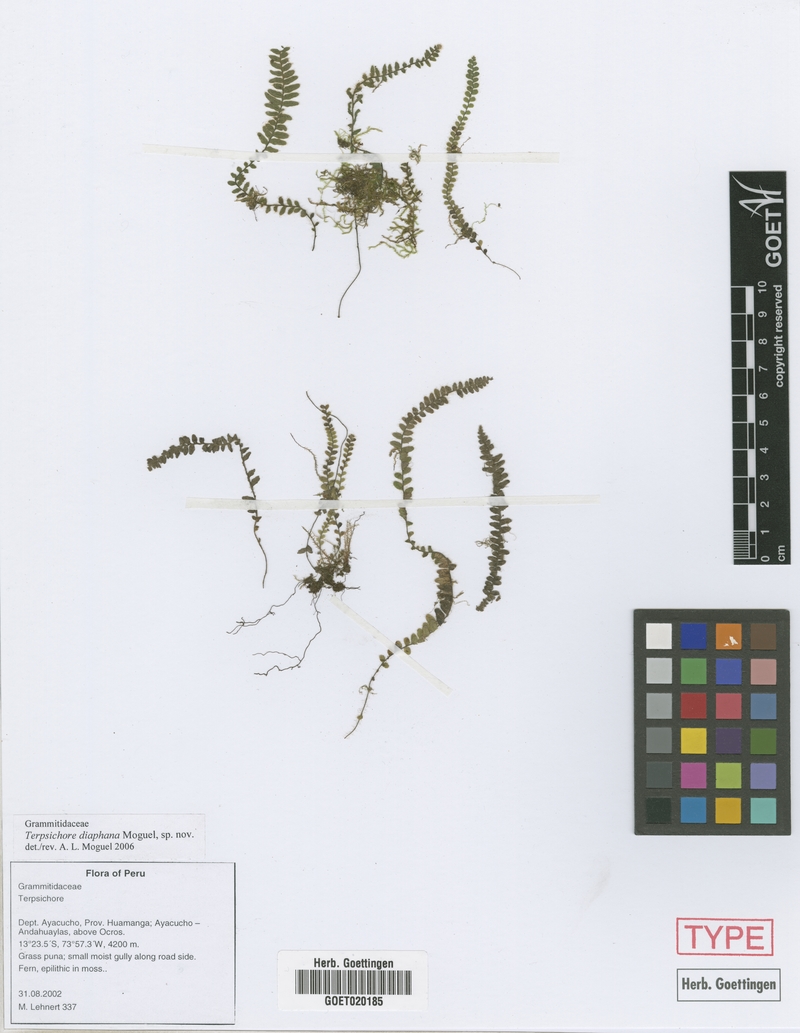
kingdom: Plantae
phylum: Tracheophyta
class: Polypodiopsida
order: Polypodiales
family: Polypodiaceae
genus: Alansmia
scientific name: Alansmia diaphana
